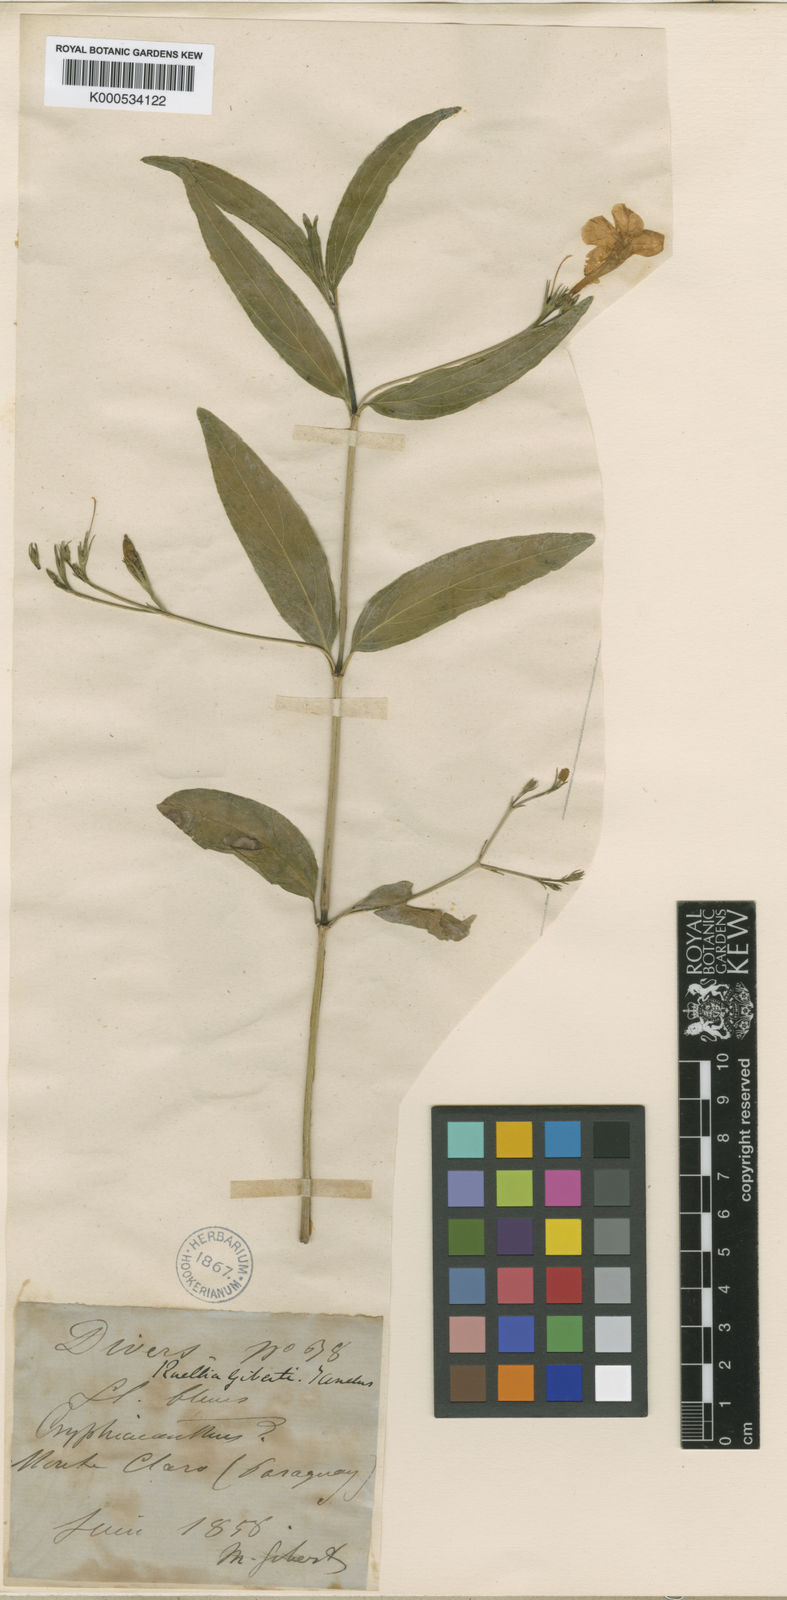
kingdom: Plantae
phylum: Tracheophyta
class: Magnoliopsida
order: Lamiales
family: Acanthaceae
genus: Ruellia
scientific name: Ruellia
